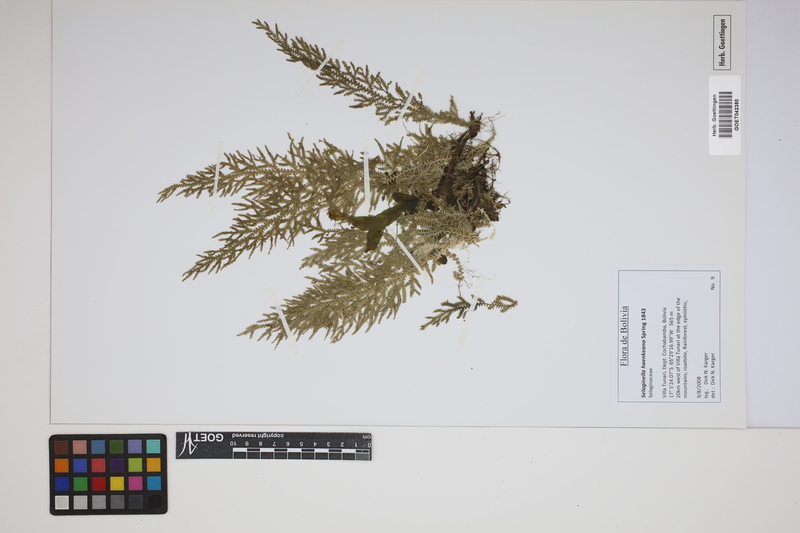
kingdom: Plantae
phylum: Tracheophyta
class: Lycopodiopsida
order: Selaginellales
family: Selaginellaceae
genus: Selaginella
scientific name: Selaginella haenkeana
